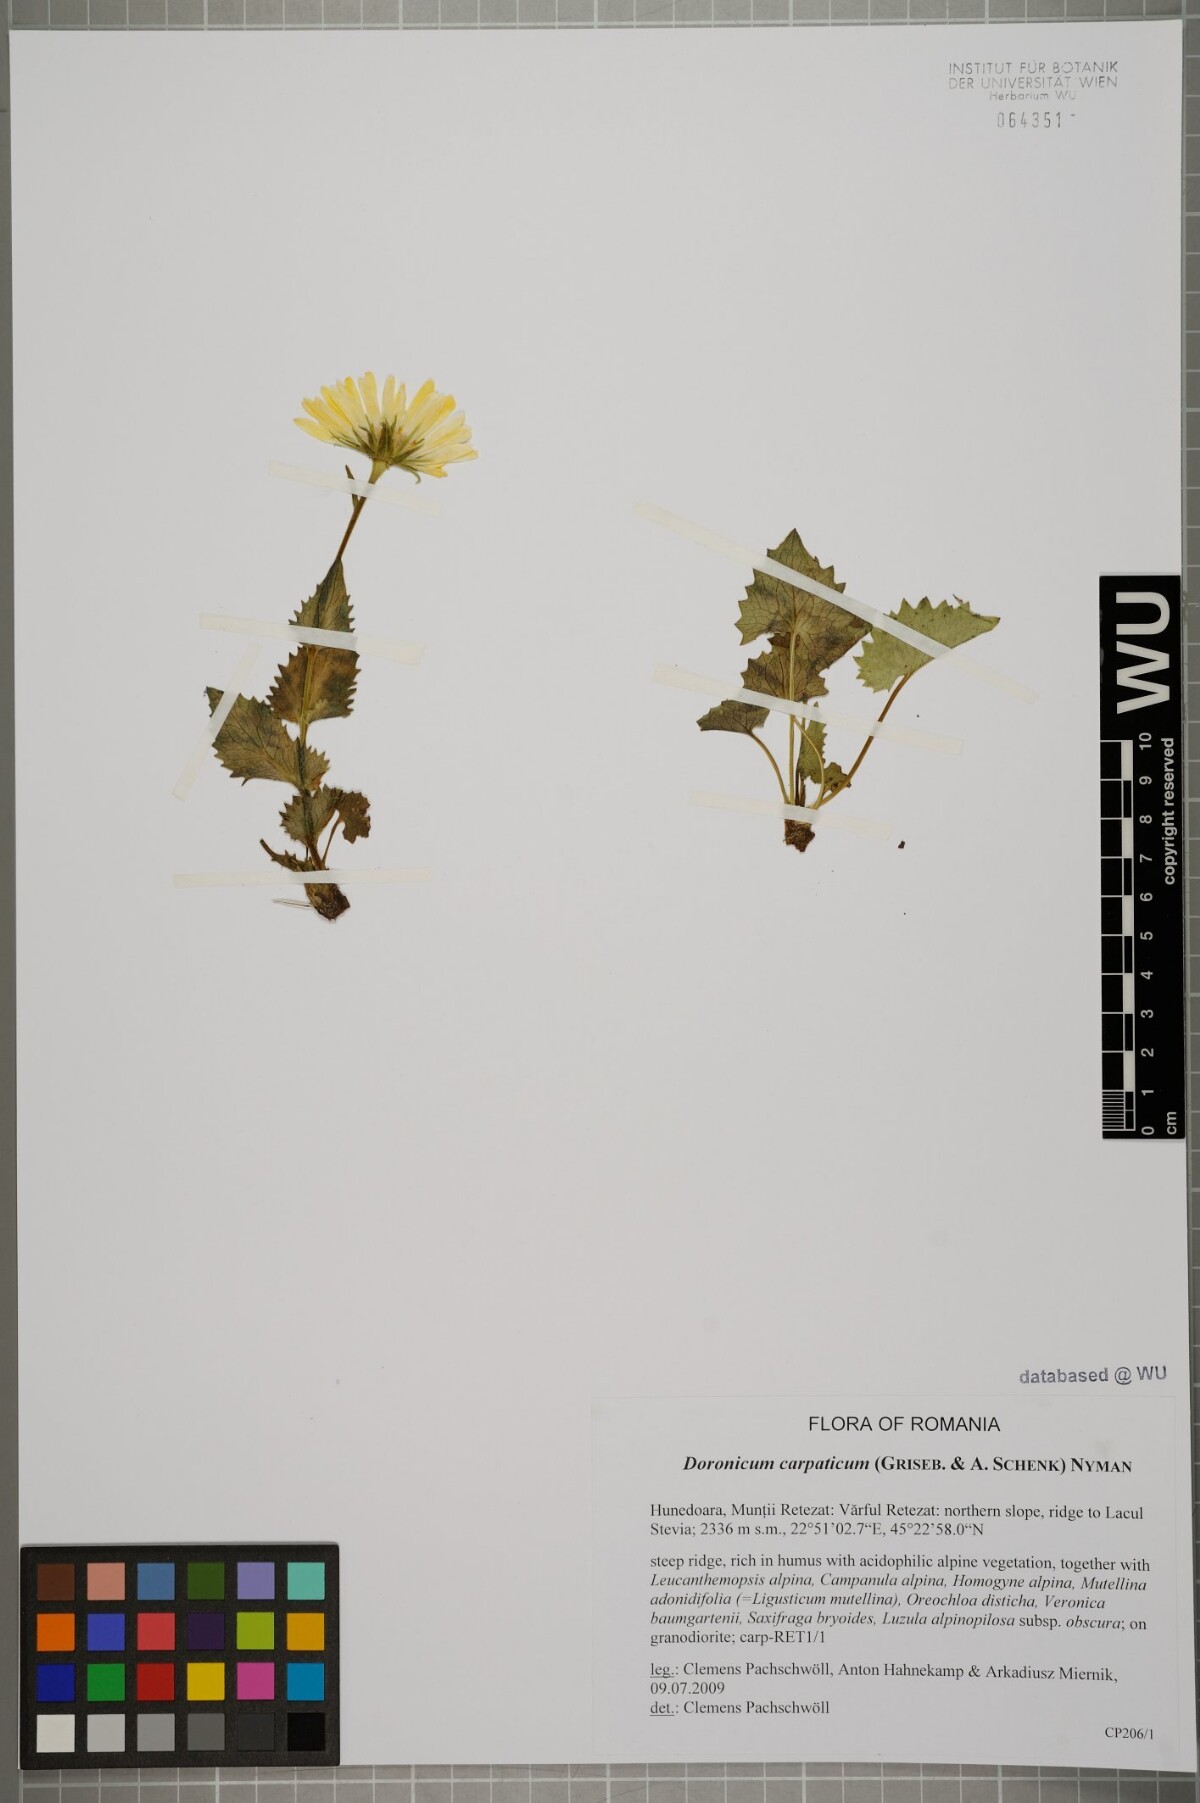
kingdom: Plantae
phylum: Tracheophyta
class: Magnoliopsida
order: Asterales
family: Asteraceae
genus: Doronicum
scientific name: Doronicum carpaticum
